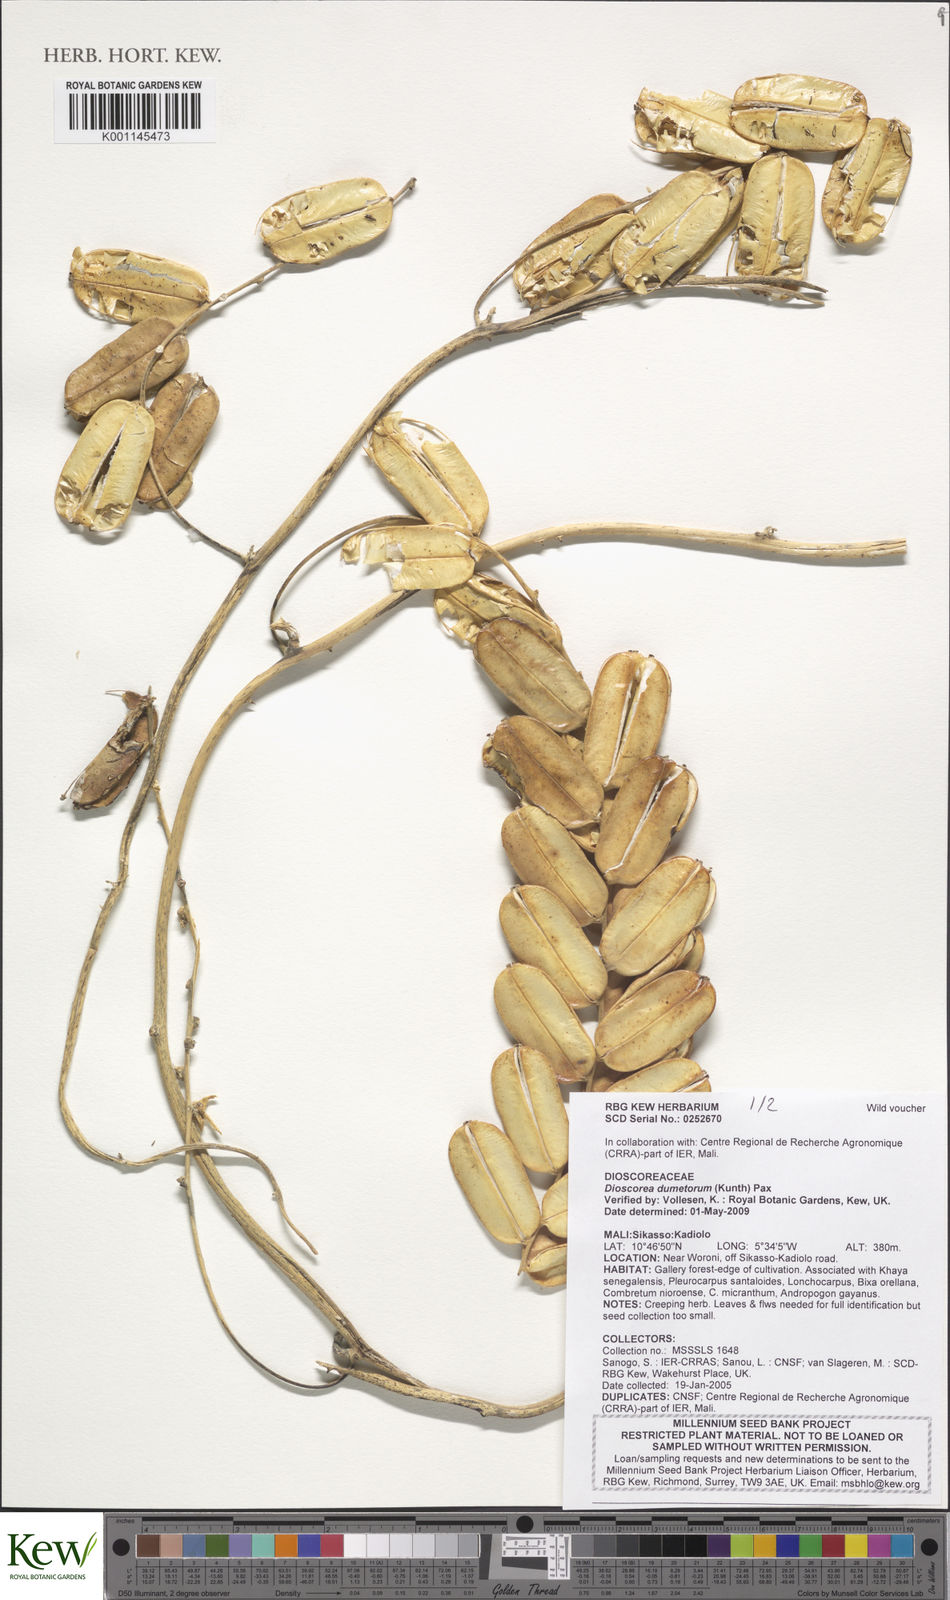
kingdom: Plantae
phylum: Tracheophyta
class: Liliopsida
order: Dioscoreales
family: Dioscoreaceae
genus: Dioscorea
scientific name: Dioscorea dumetorum
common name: African bitter yam
